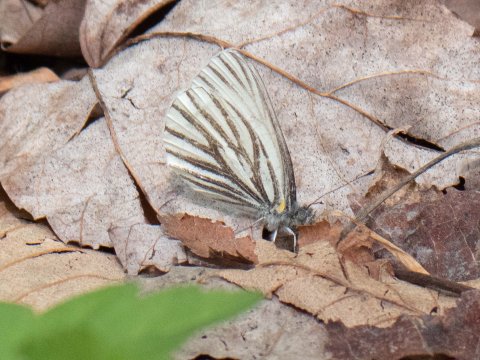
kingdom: Animalia
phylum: Arthropoda
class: Insecta
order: Lepidoptera
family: Pieridae
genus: Pieris
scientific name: Pieris oleracea
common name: Mustard White
